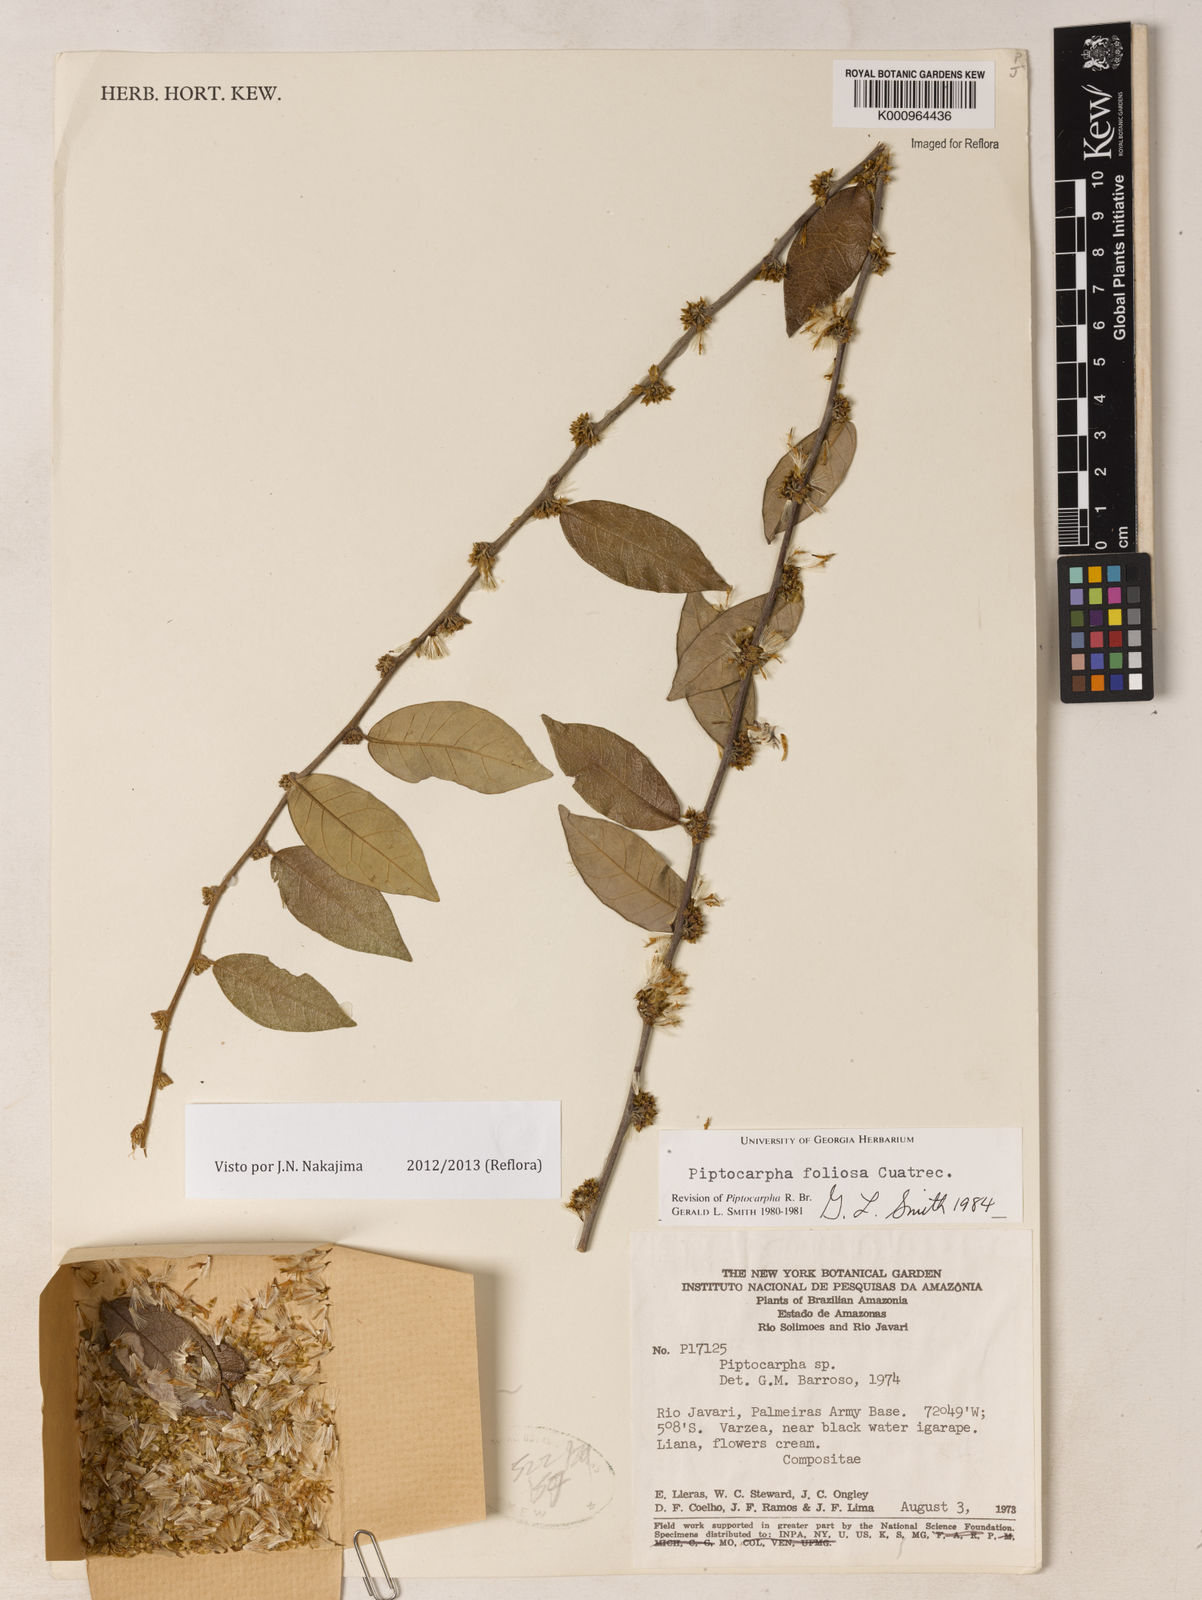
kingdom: Plantae
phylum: Tracheophyta
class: Magnoliopsida
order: Asterales
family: Asteraceae
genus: Piptocarpha
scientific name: Piptocarpha poeppigiana
